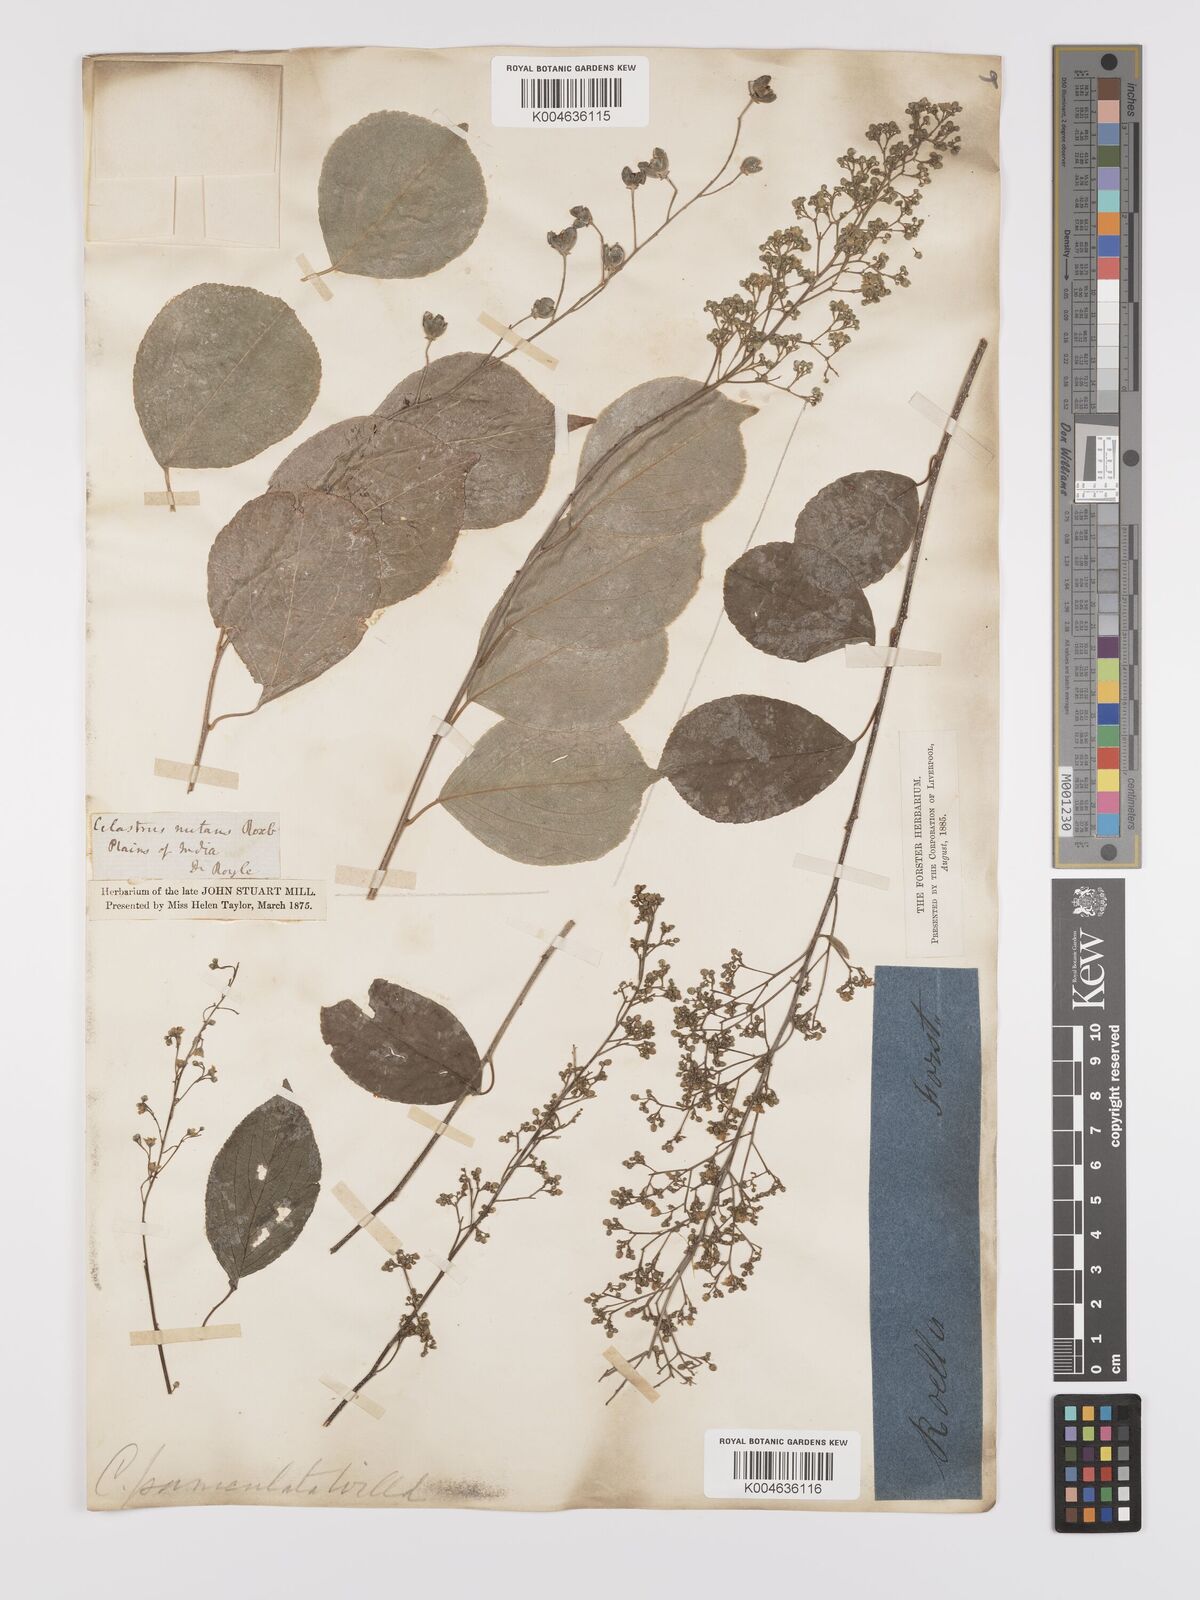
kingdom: Plantae
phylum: Tracheophyta
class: Magnoliopsida
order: Celastrales
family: Celastraceae
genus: Celastrus
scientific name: Celastrus
